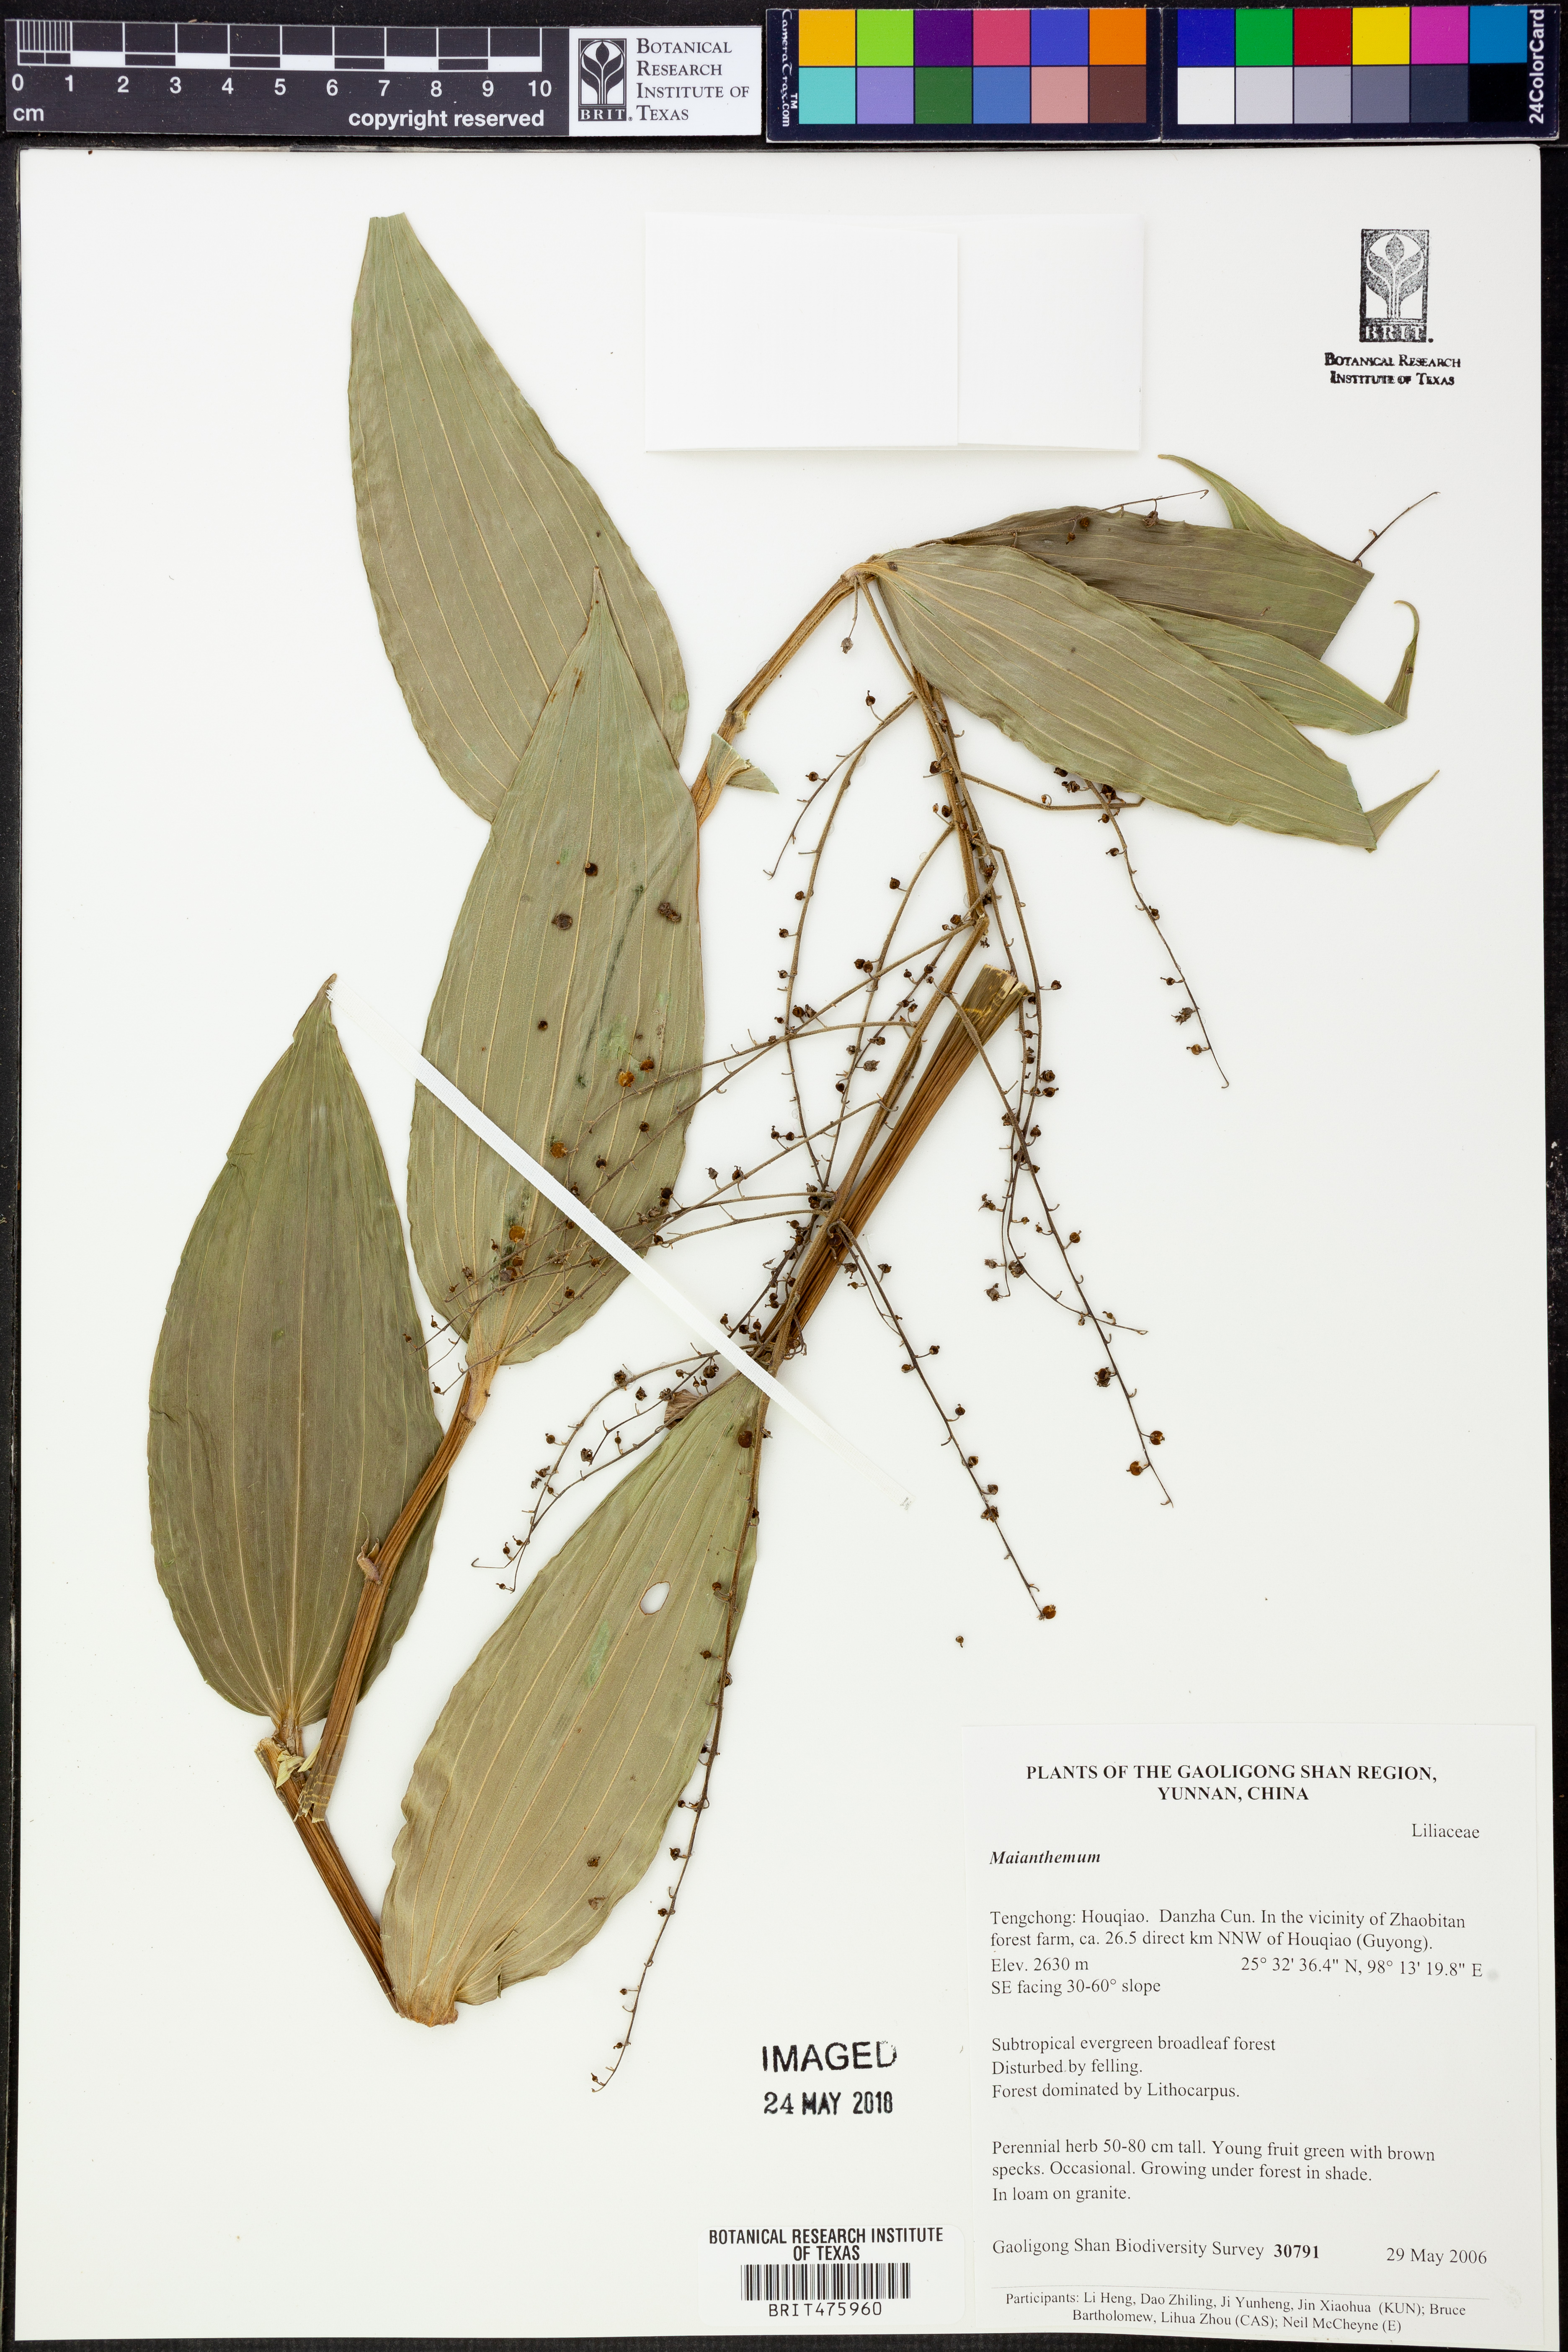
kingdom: Plantae
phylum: Tracheophyta
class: Liliopsida
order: Asparagales
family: Asparagaceae
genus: Maianthemum
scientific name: Maianthemum
